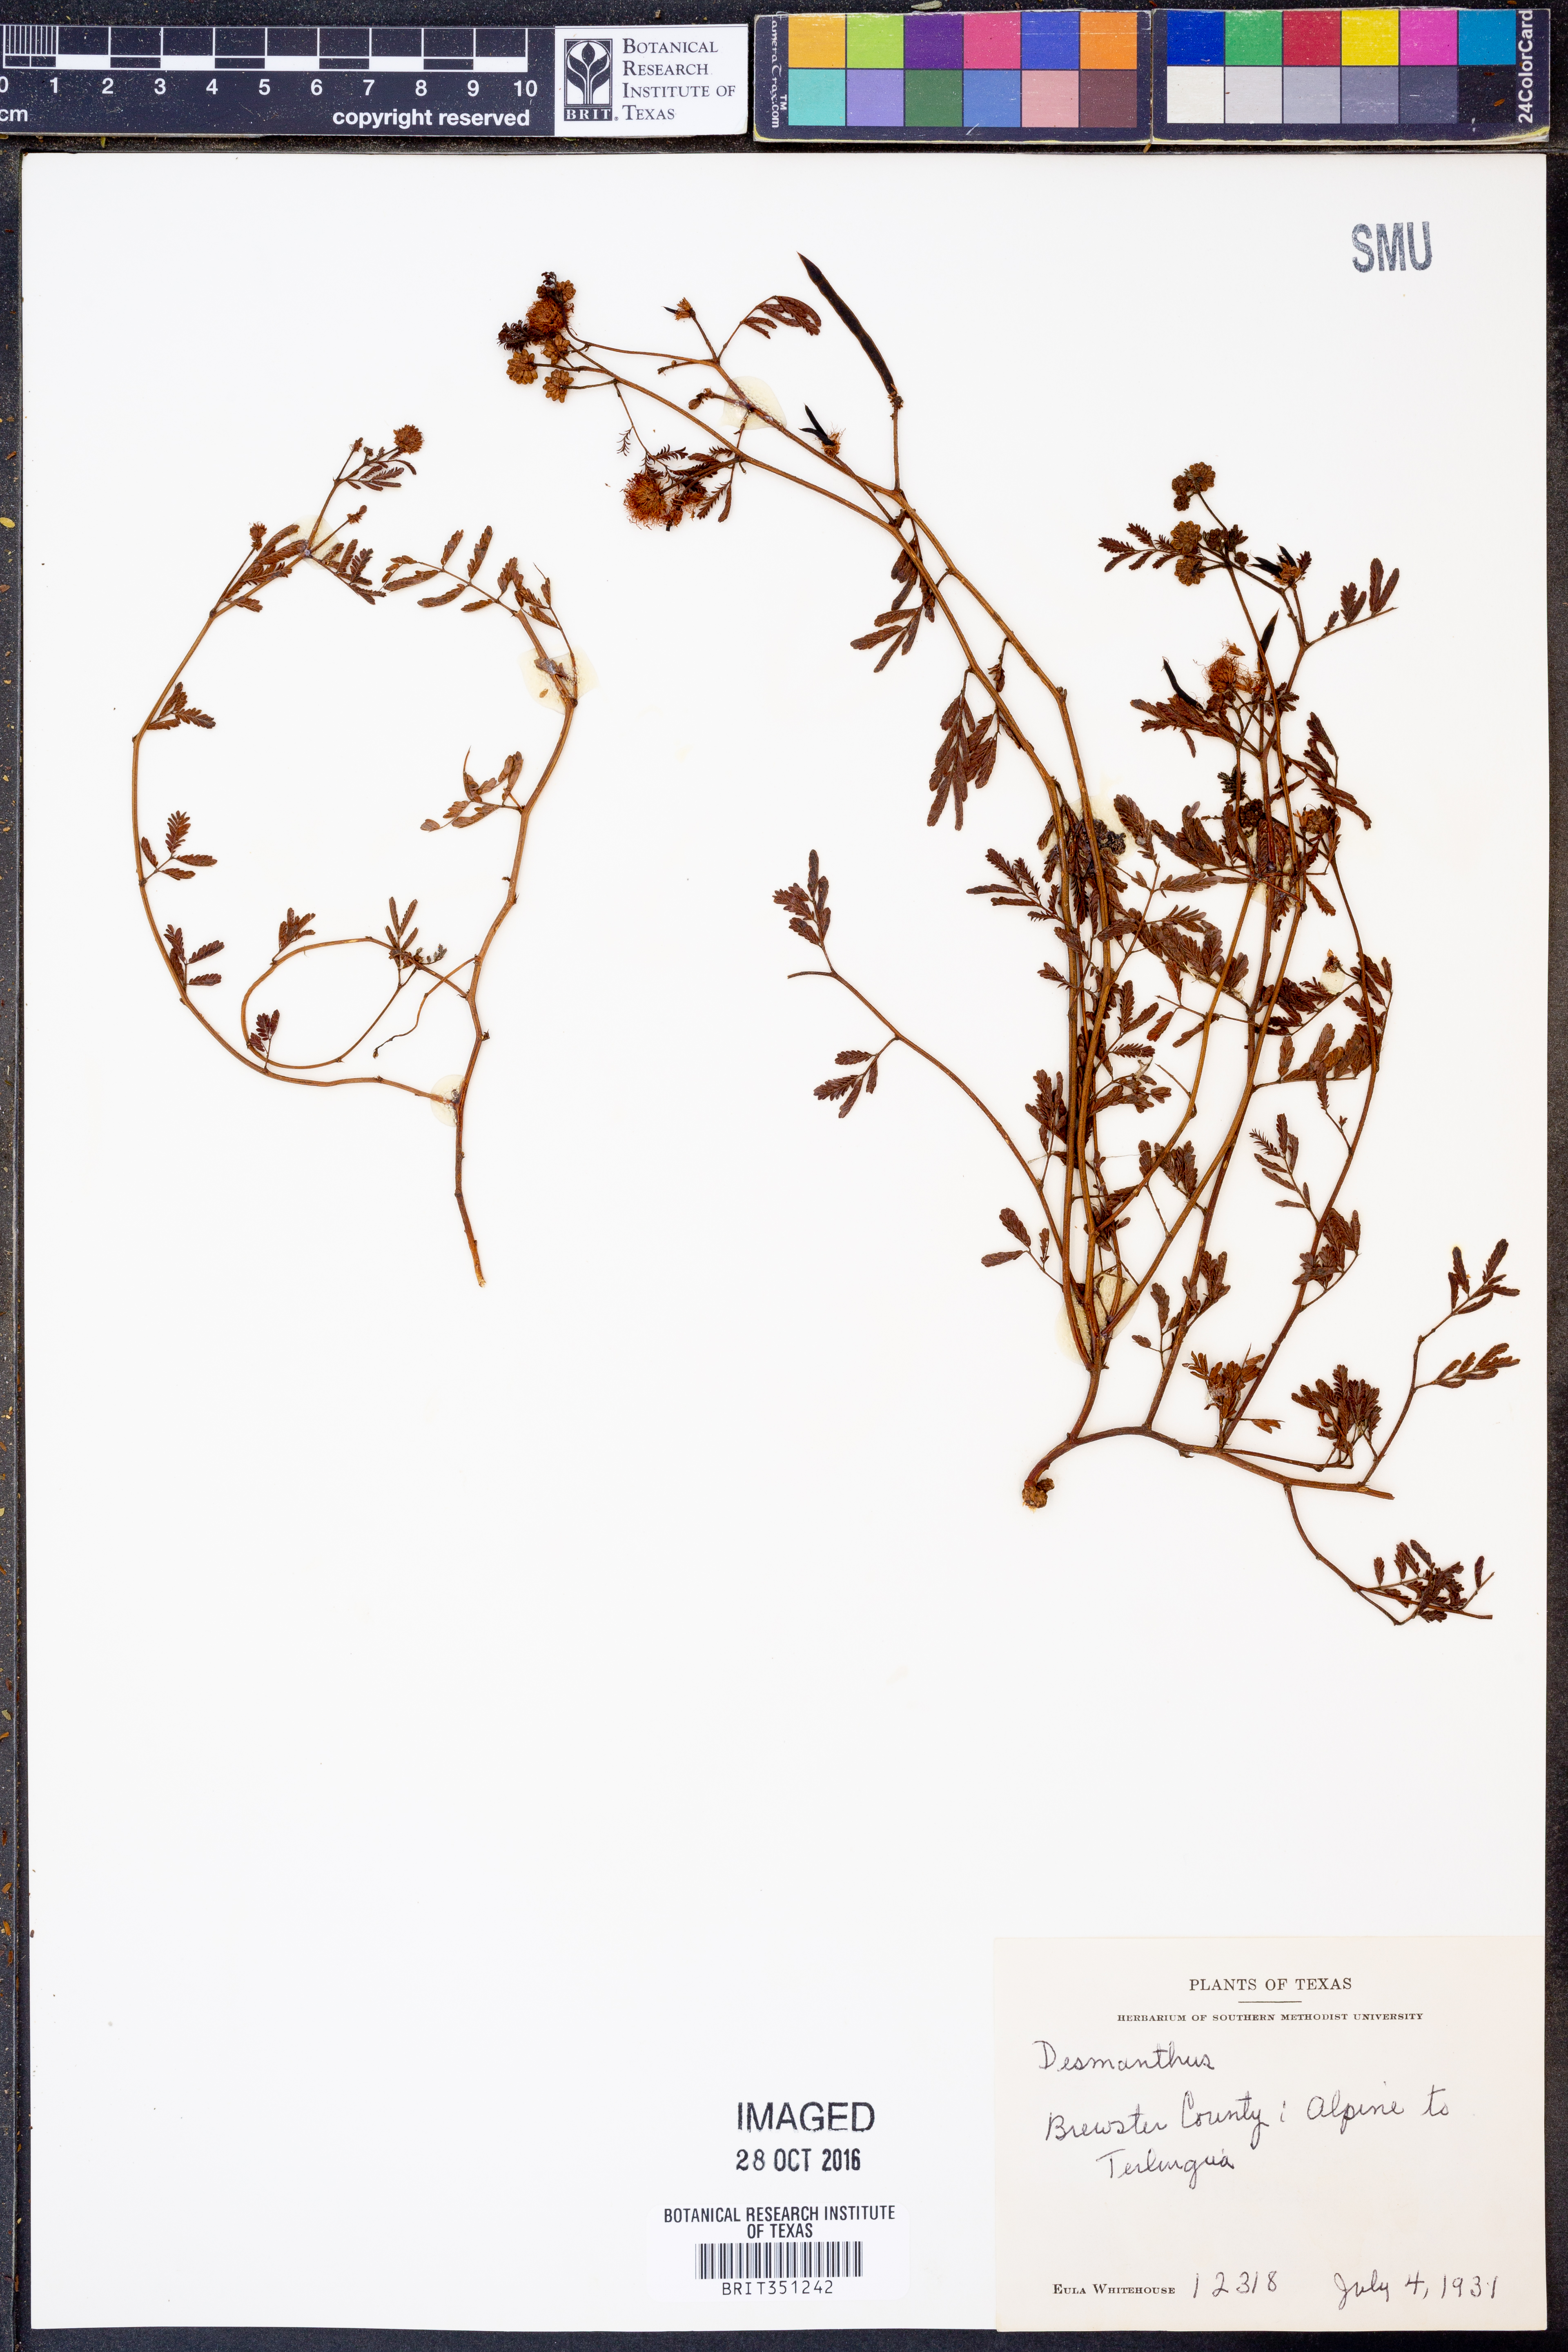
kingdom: Plantae
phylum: Tracheophyta
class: Magnoliopsida
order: Fabales
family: Fabaceae
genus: Desmanthus
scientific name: Desmanthus
